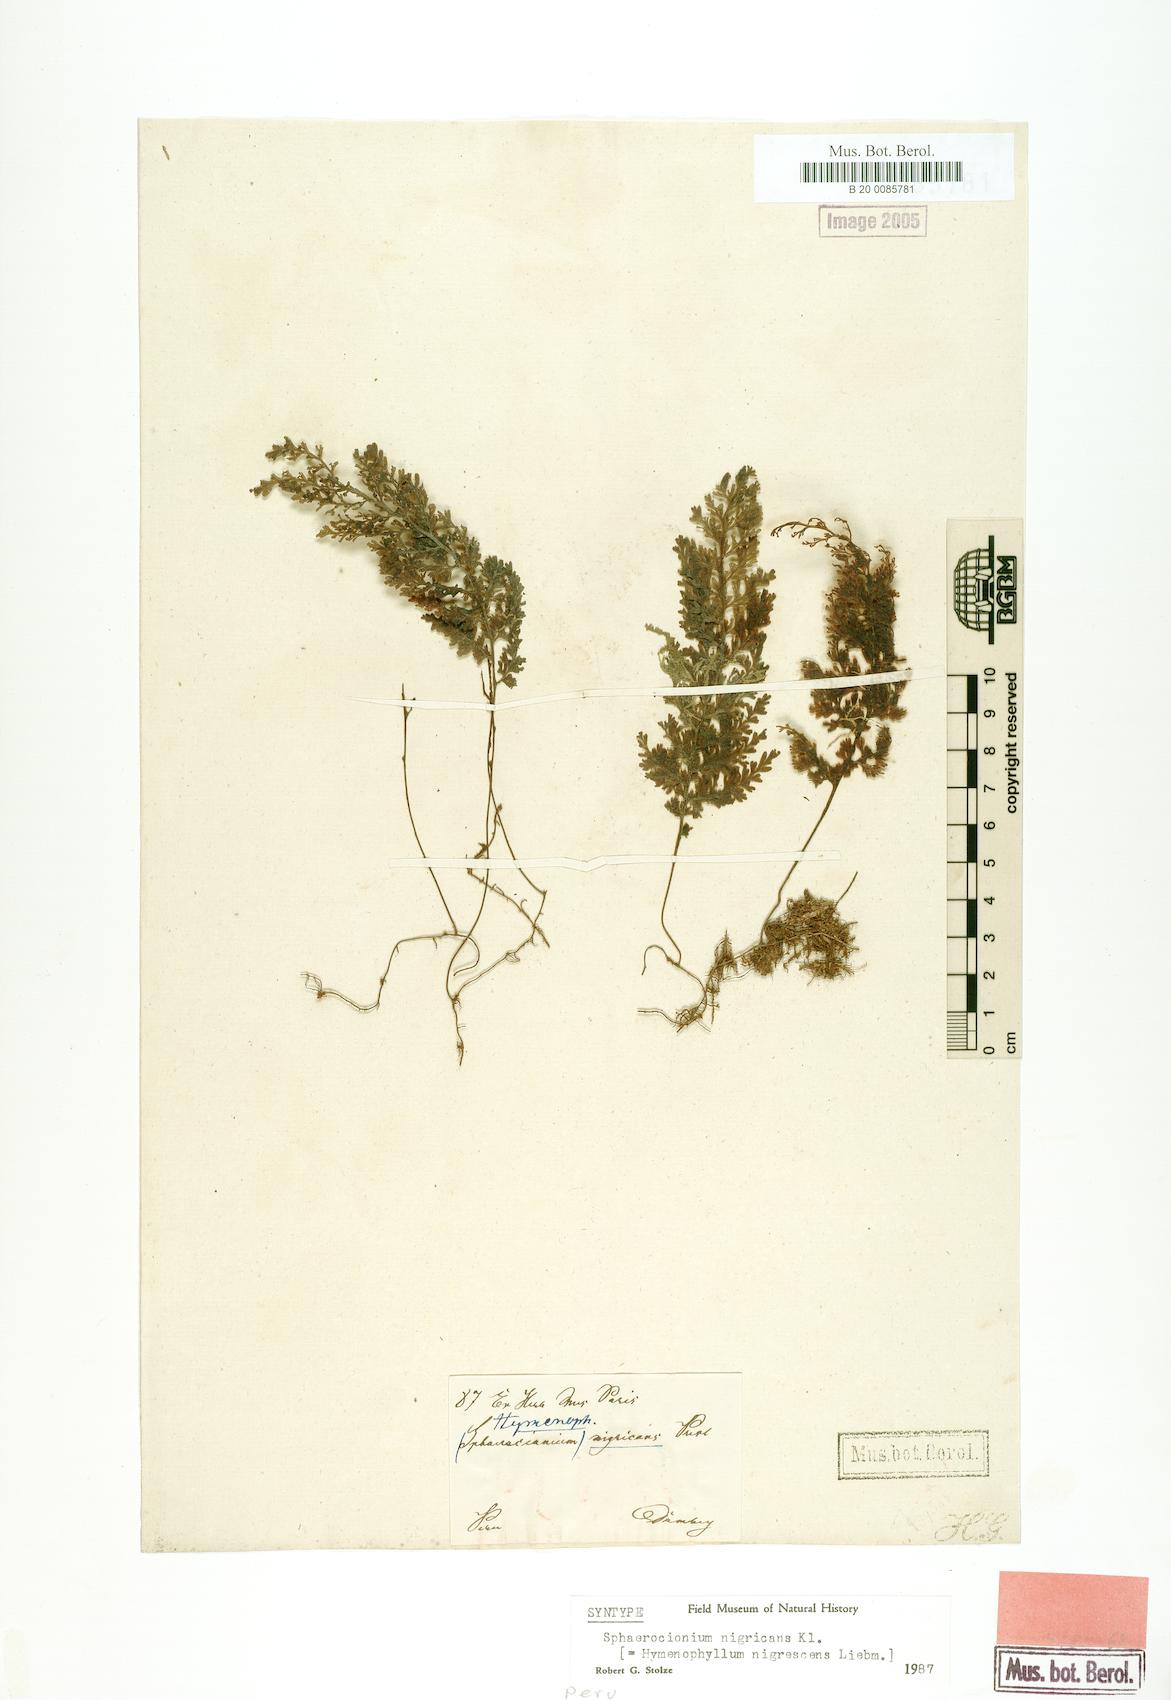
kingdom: Plantae
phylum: Tracheophyta
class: Polypodiopsida
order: Hymenophyllales
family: Hymenophyllaceae
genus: Hymenophyllum
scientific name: Hymenophyllum myriocarpum
